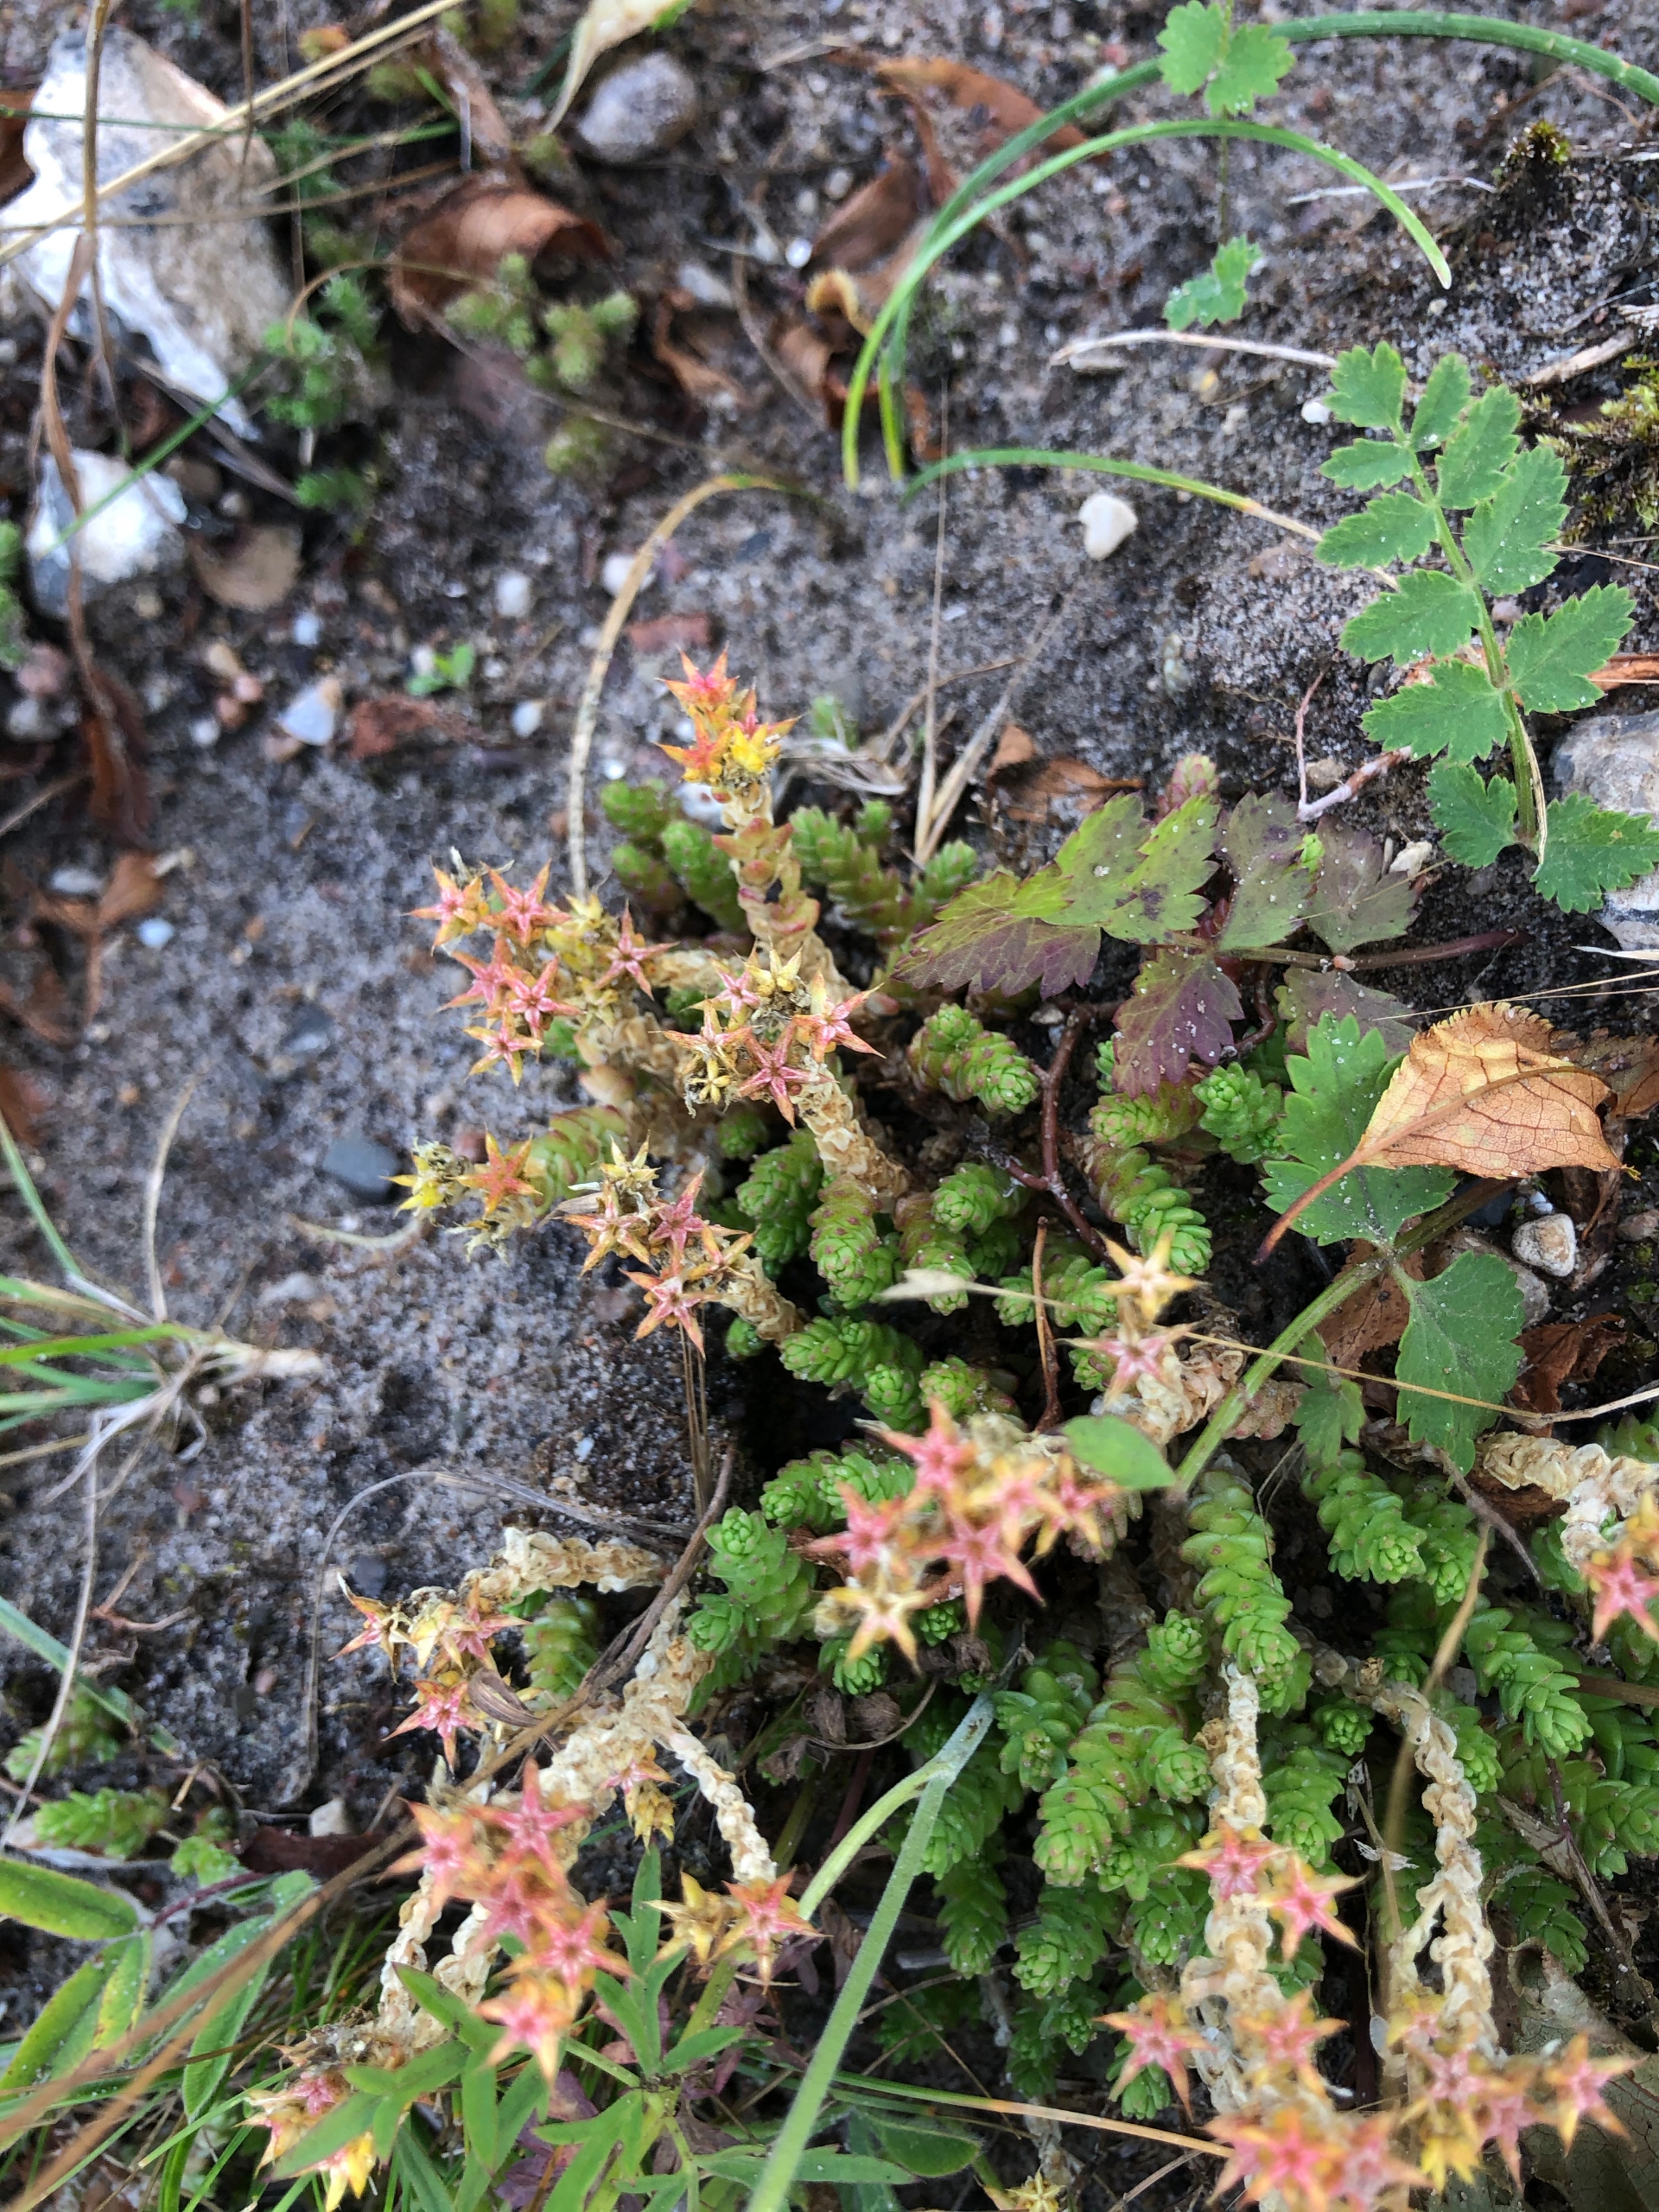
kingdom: Plantae
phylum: Tracheophyta
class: Magnoliopsida
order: Saxifragales
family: Crassulaceae
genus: Sedum
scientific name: Sedum acre
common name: Bidende stenurt
